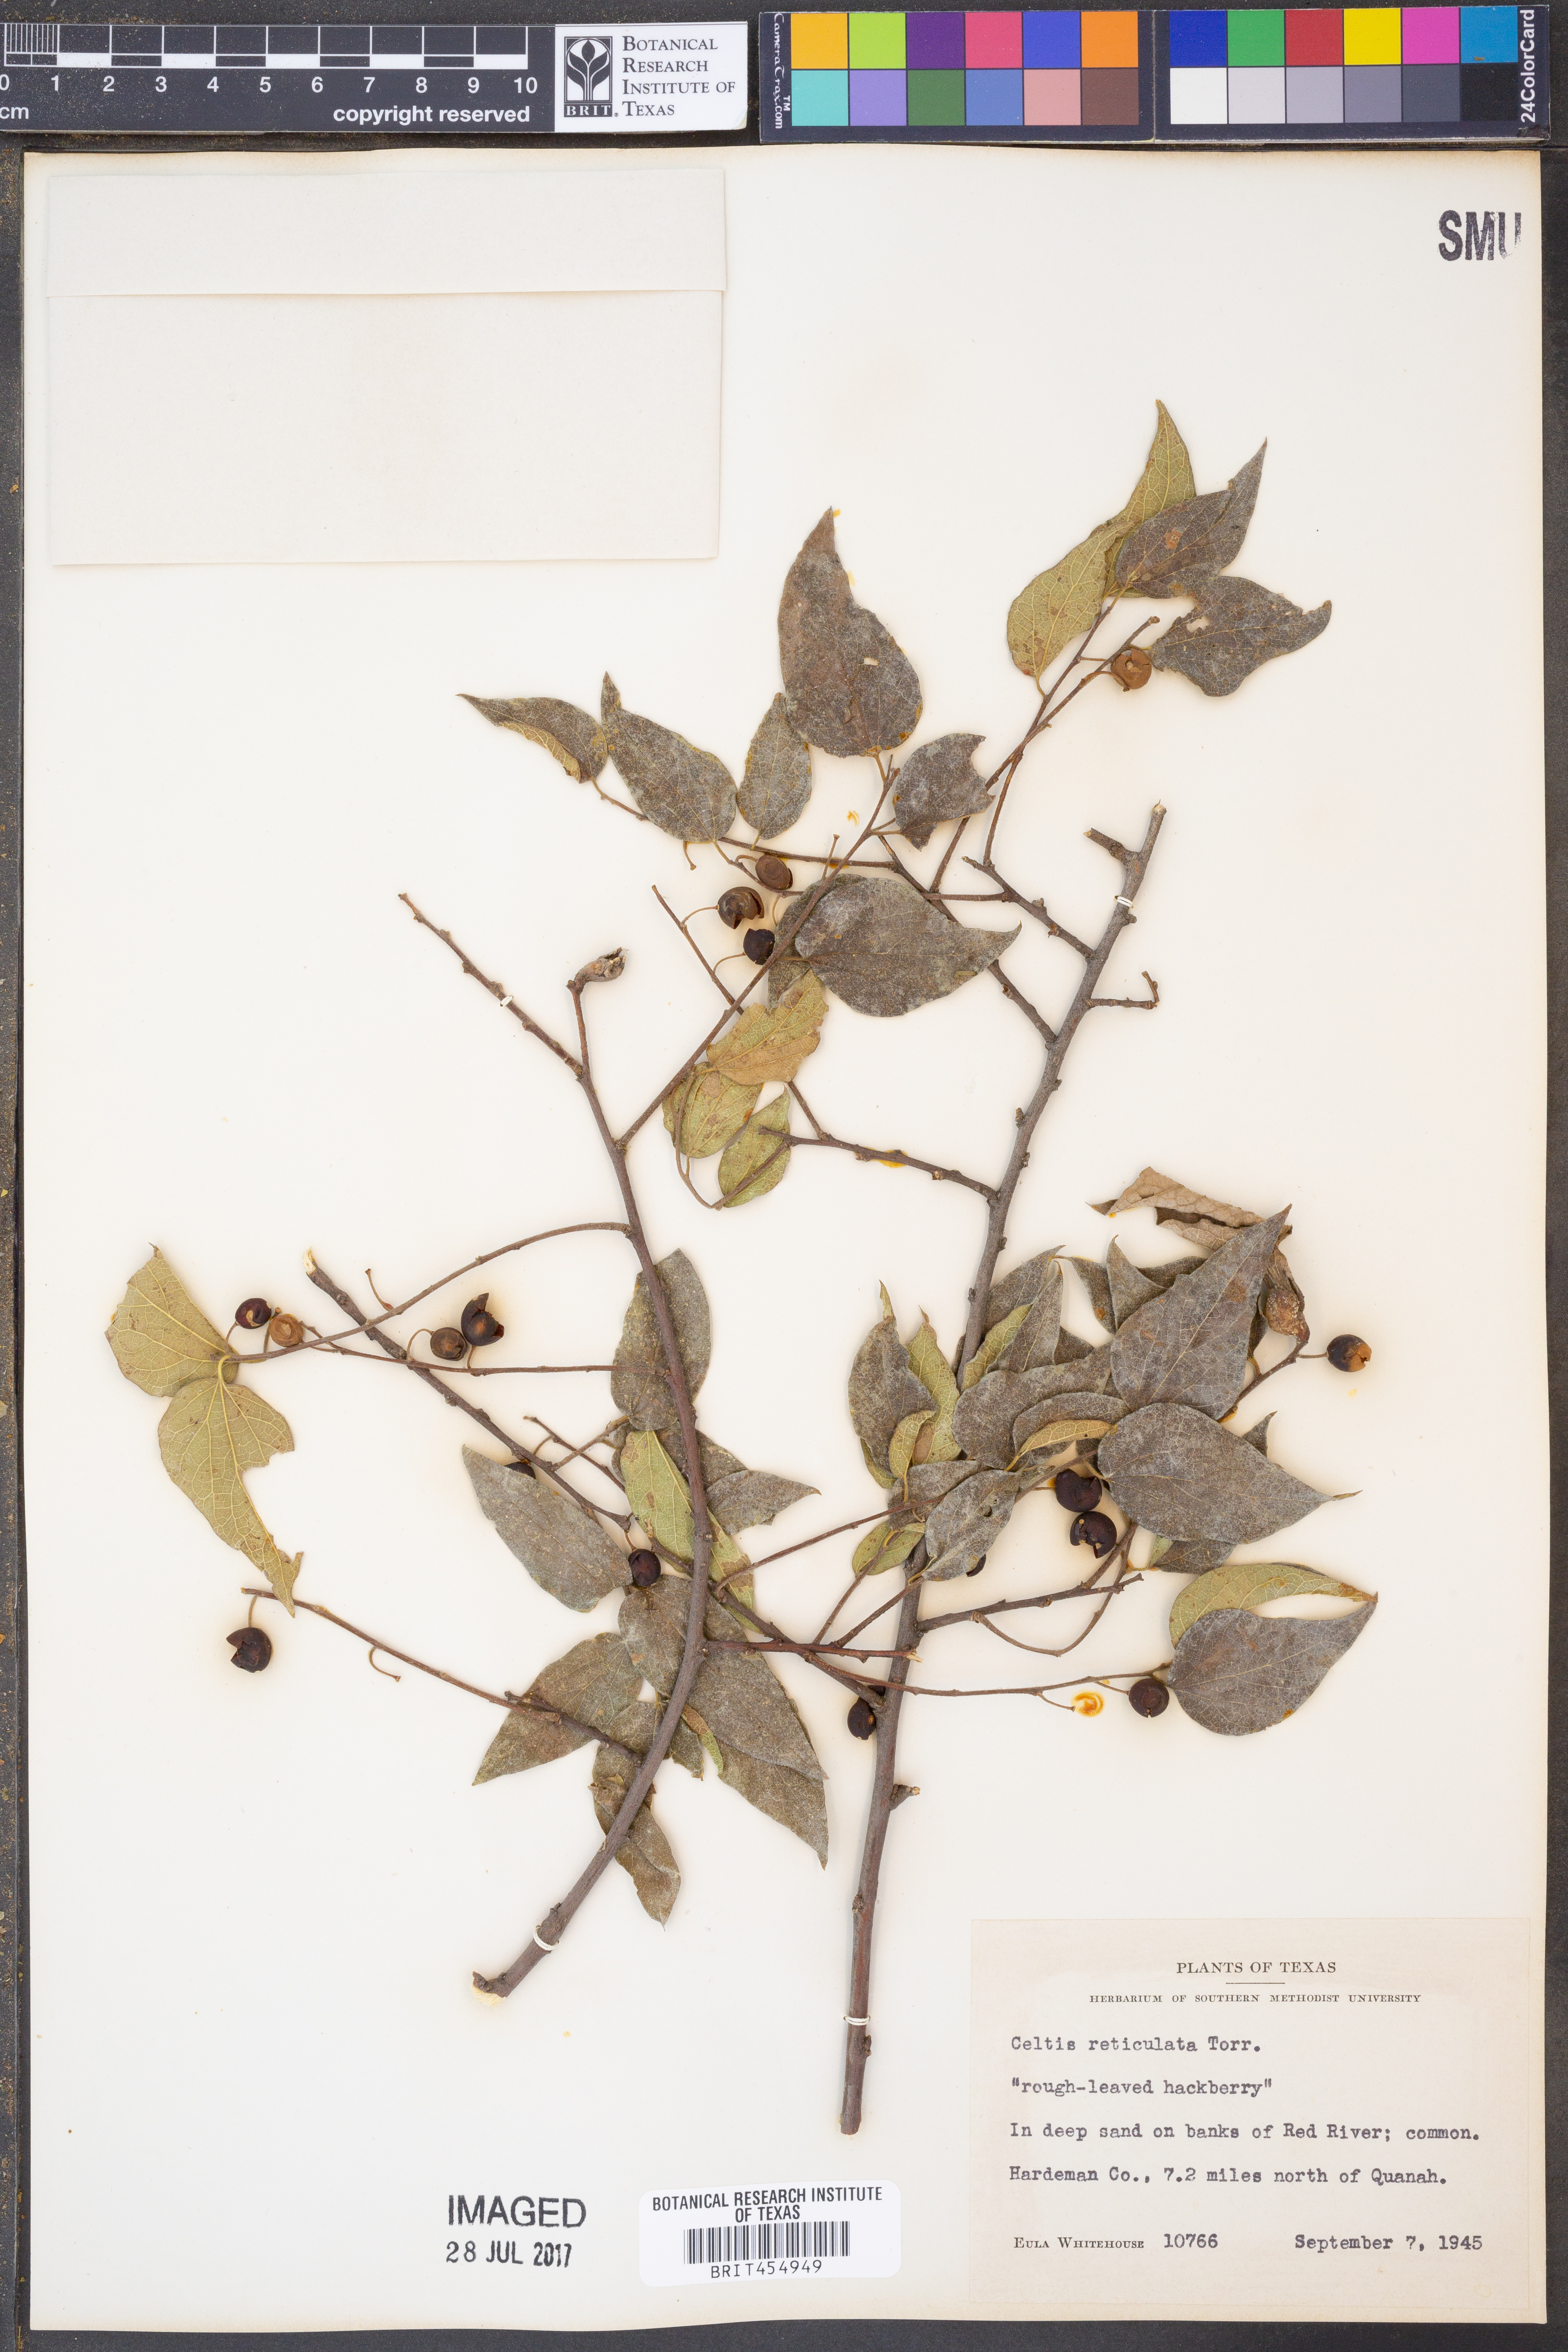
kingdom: Plantae
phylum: Tracheophyta
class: Magnoliopsida
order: Rosales
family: Cannabaceae
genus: Celtis
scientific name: Celtis reticulata
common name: Netleaf hackberry
